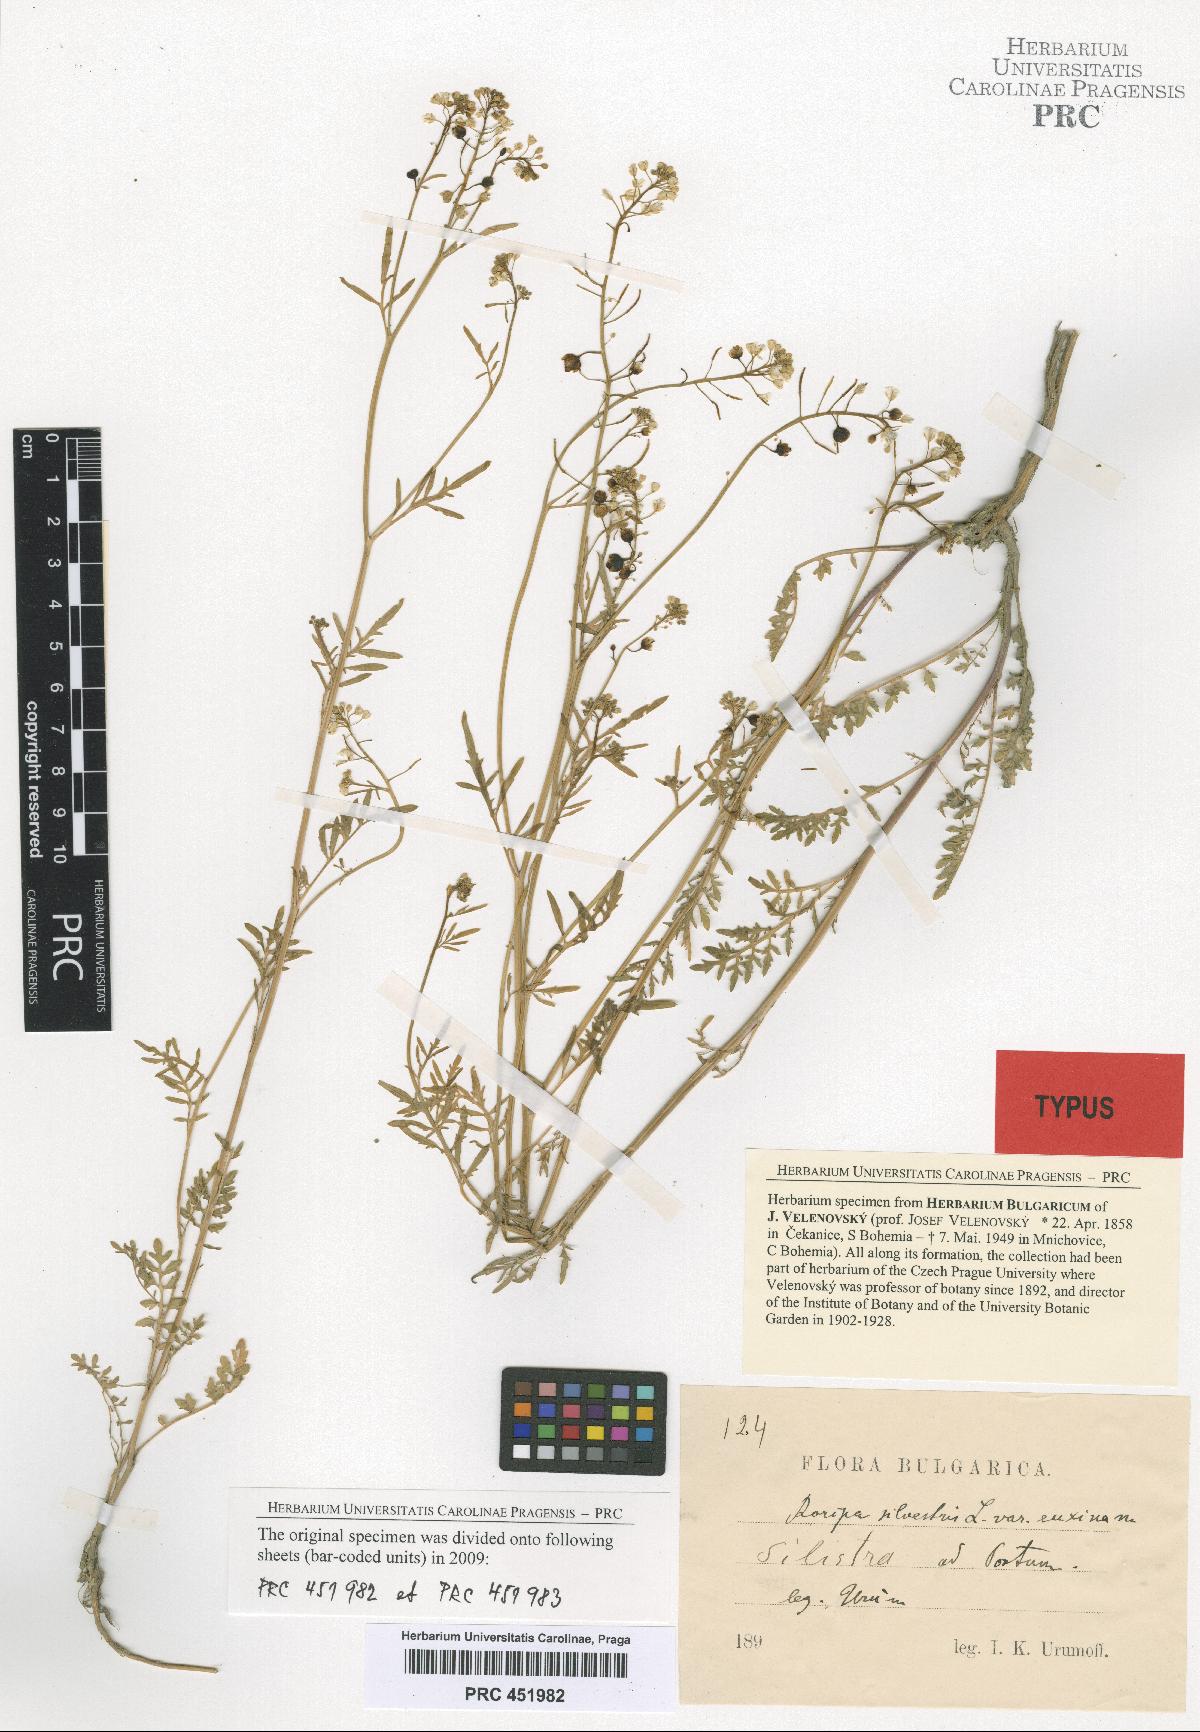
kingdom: Plantae
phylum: Tracheophyta
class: Magnoliopsida
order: Brassicales
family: Brassicaceae
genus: Rorippa
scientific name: Rorippa sylvestris
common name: Creeping yellowcress
